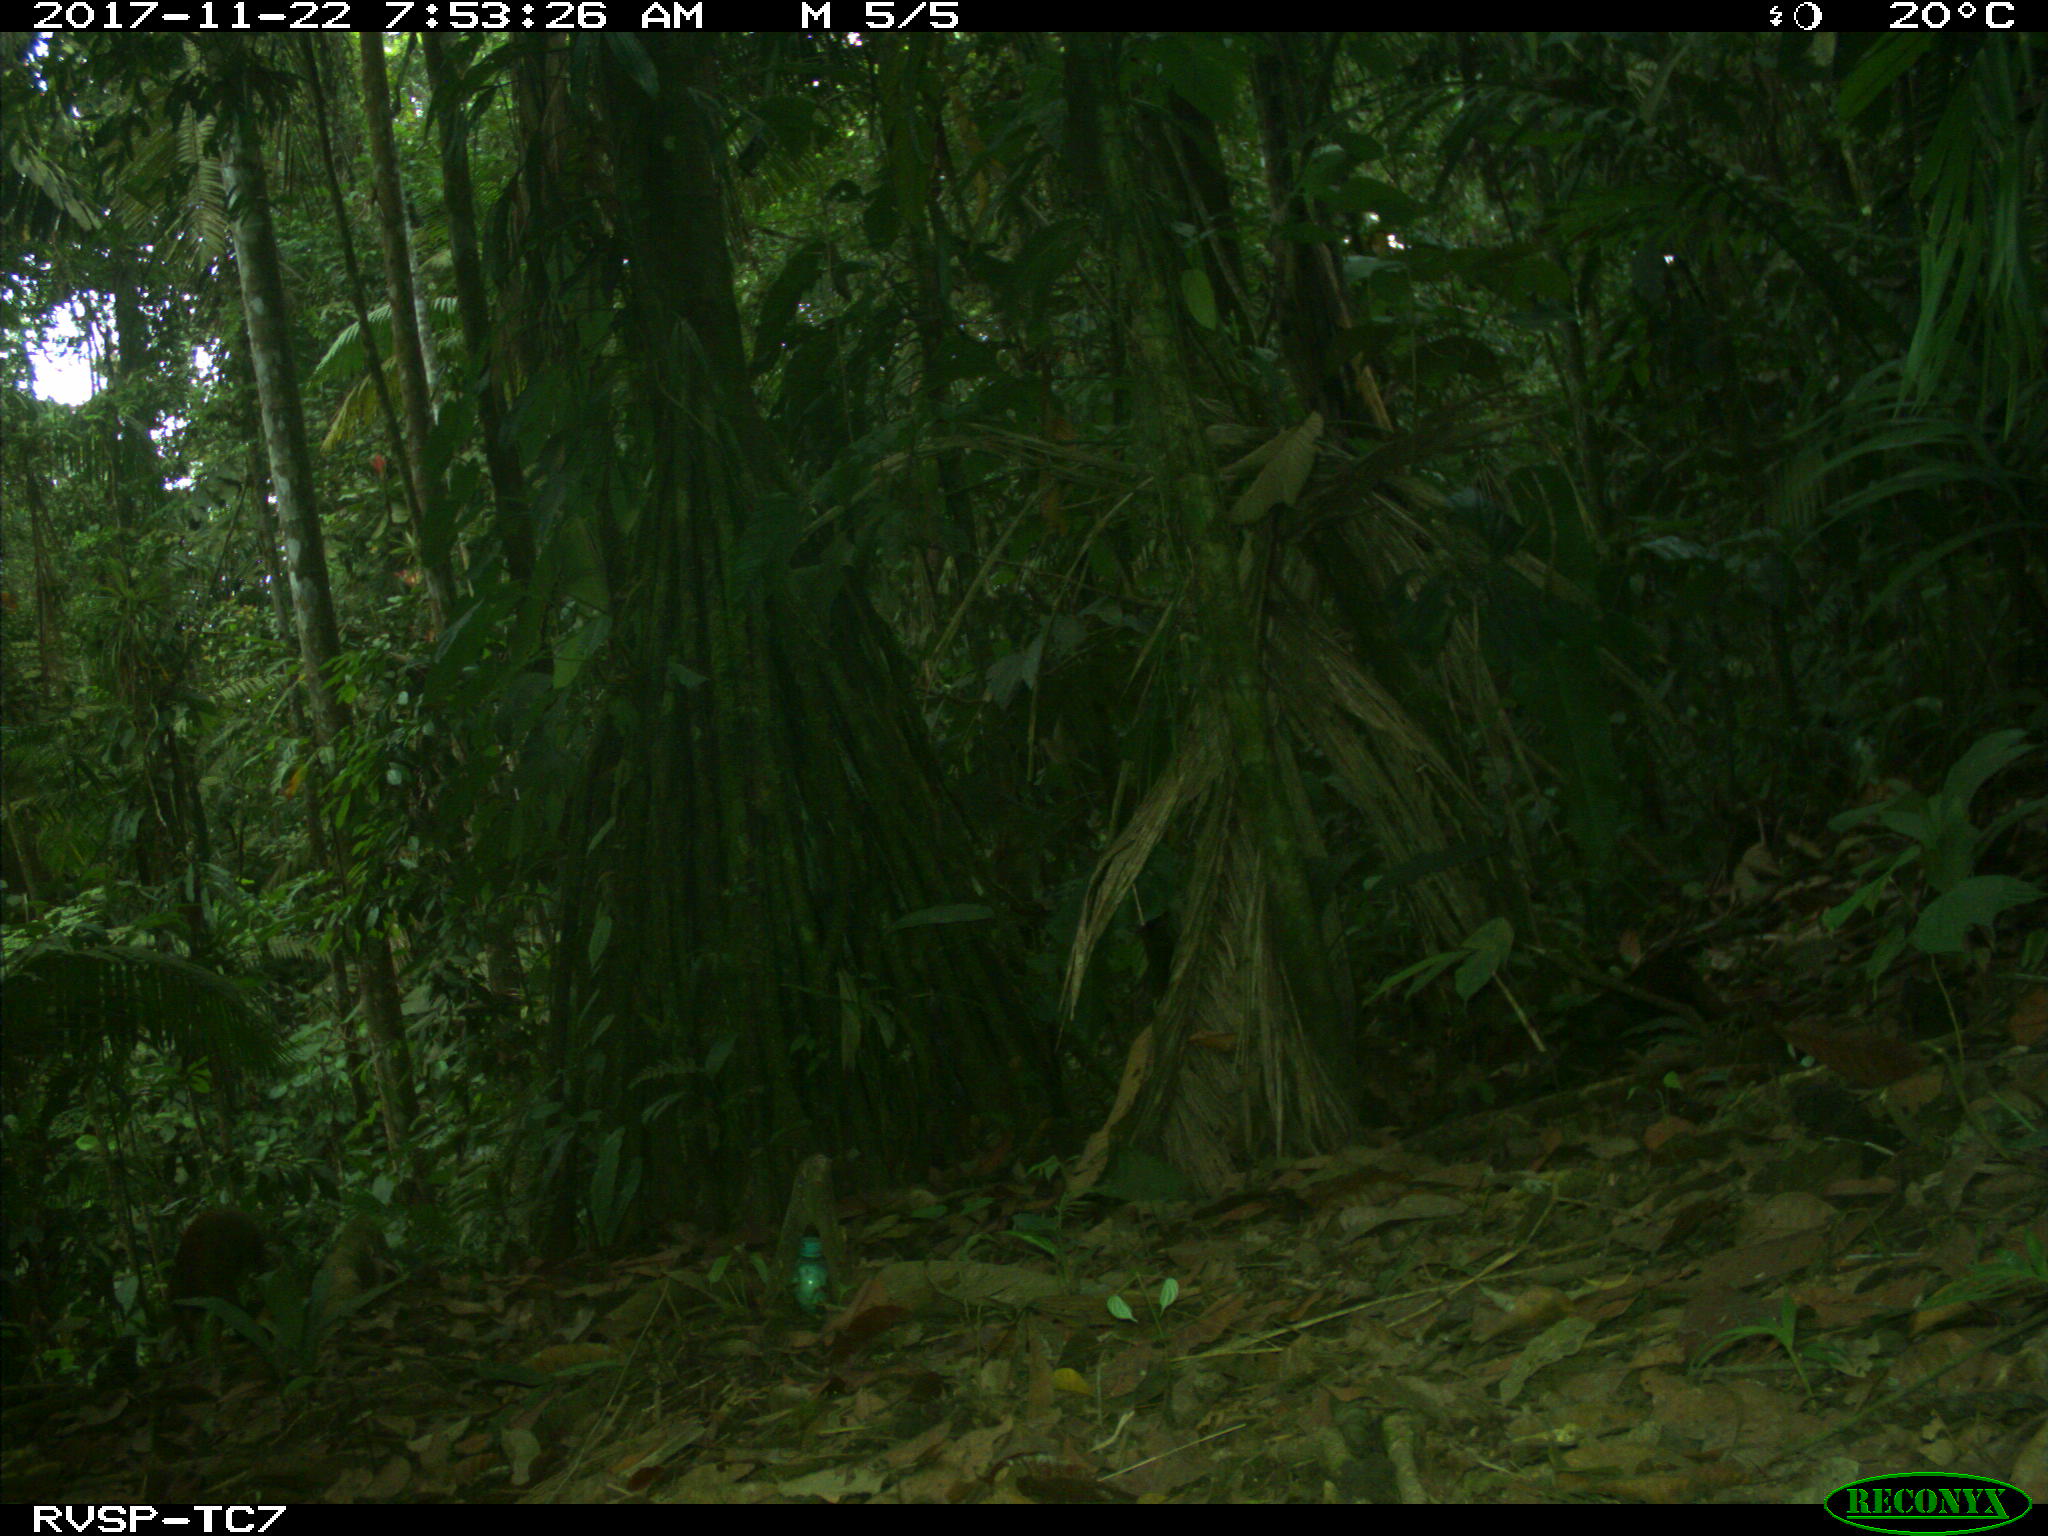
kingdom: Animalia
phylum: Chordata
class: Mammalia
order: Rodentia
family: Dasyproctidae
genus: Dasyprocta
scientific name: Dasyprocta punctata
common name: Central american agouti
